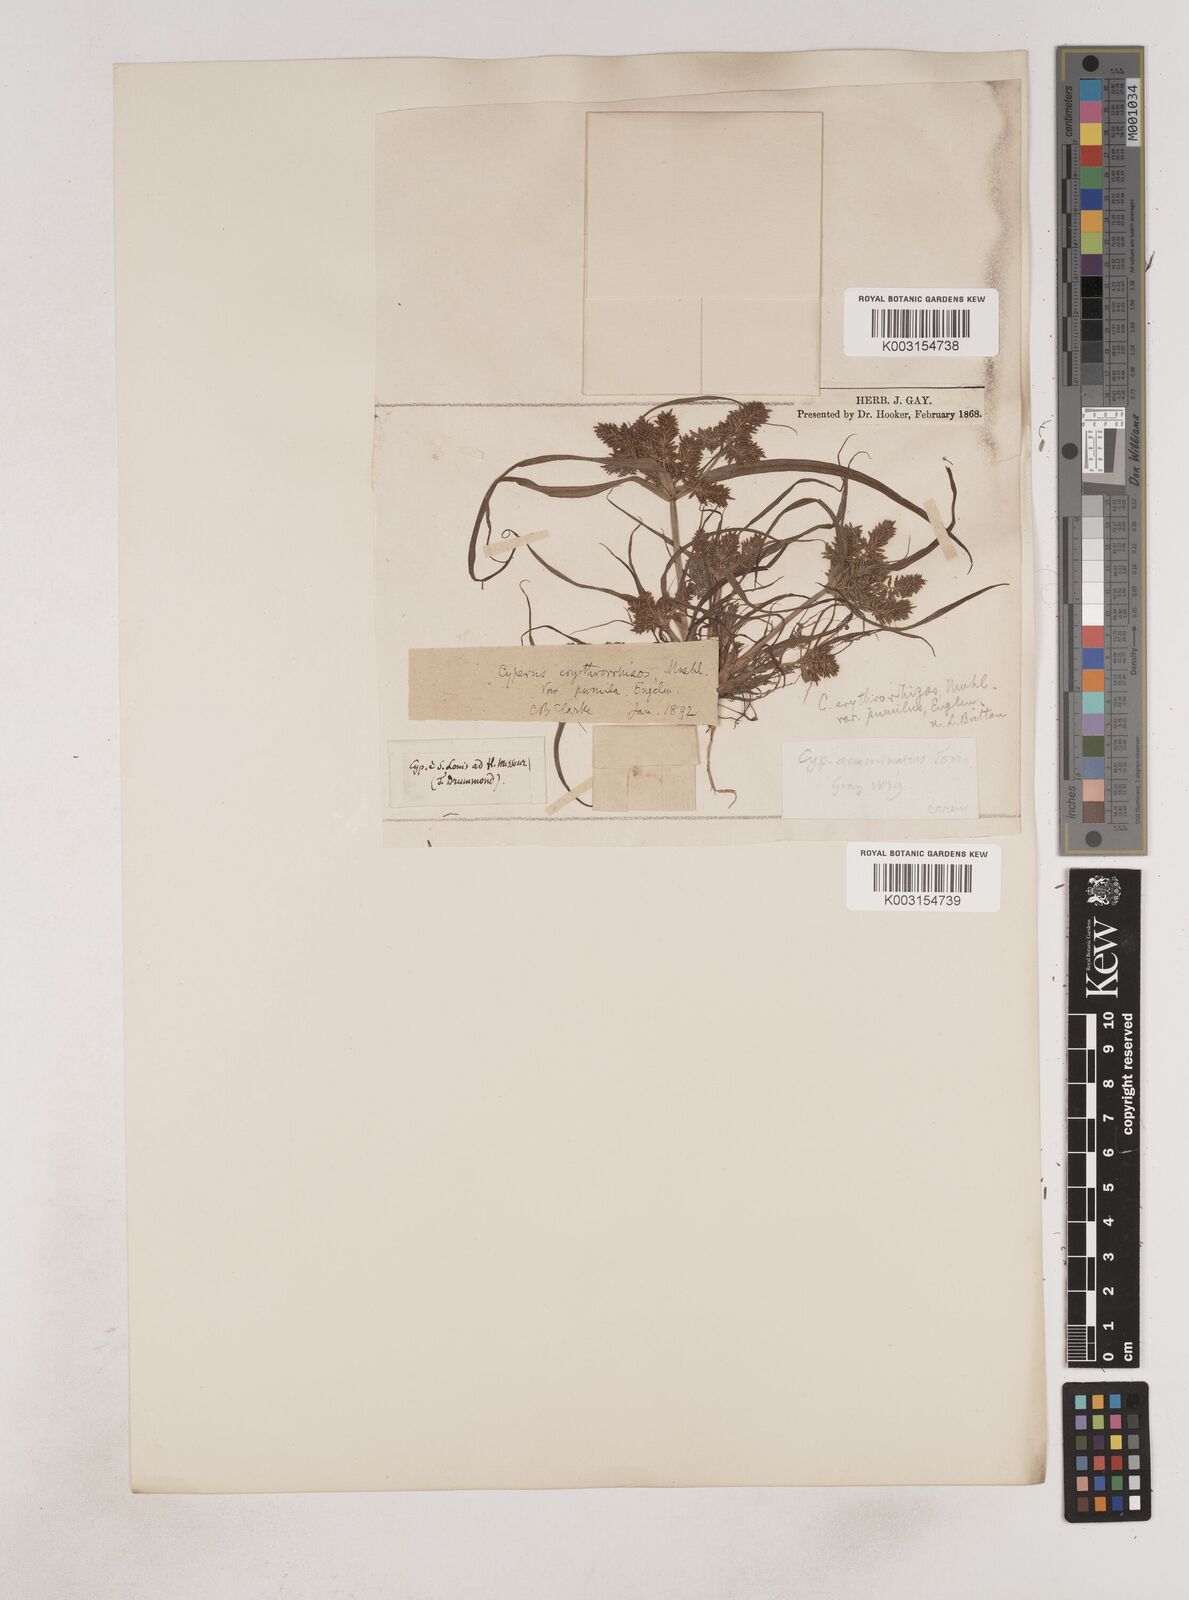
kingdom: Plantae
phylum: Tracheophyta
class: Liliopsida
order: Poales
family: Cyperaceae
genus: Cyperus
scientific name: Cyperus erythrorhizos
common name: Red-root flat sedge
